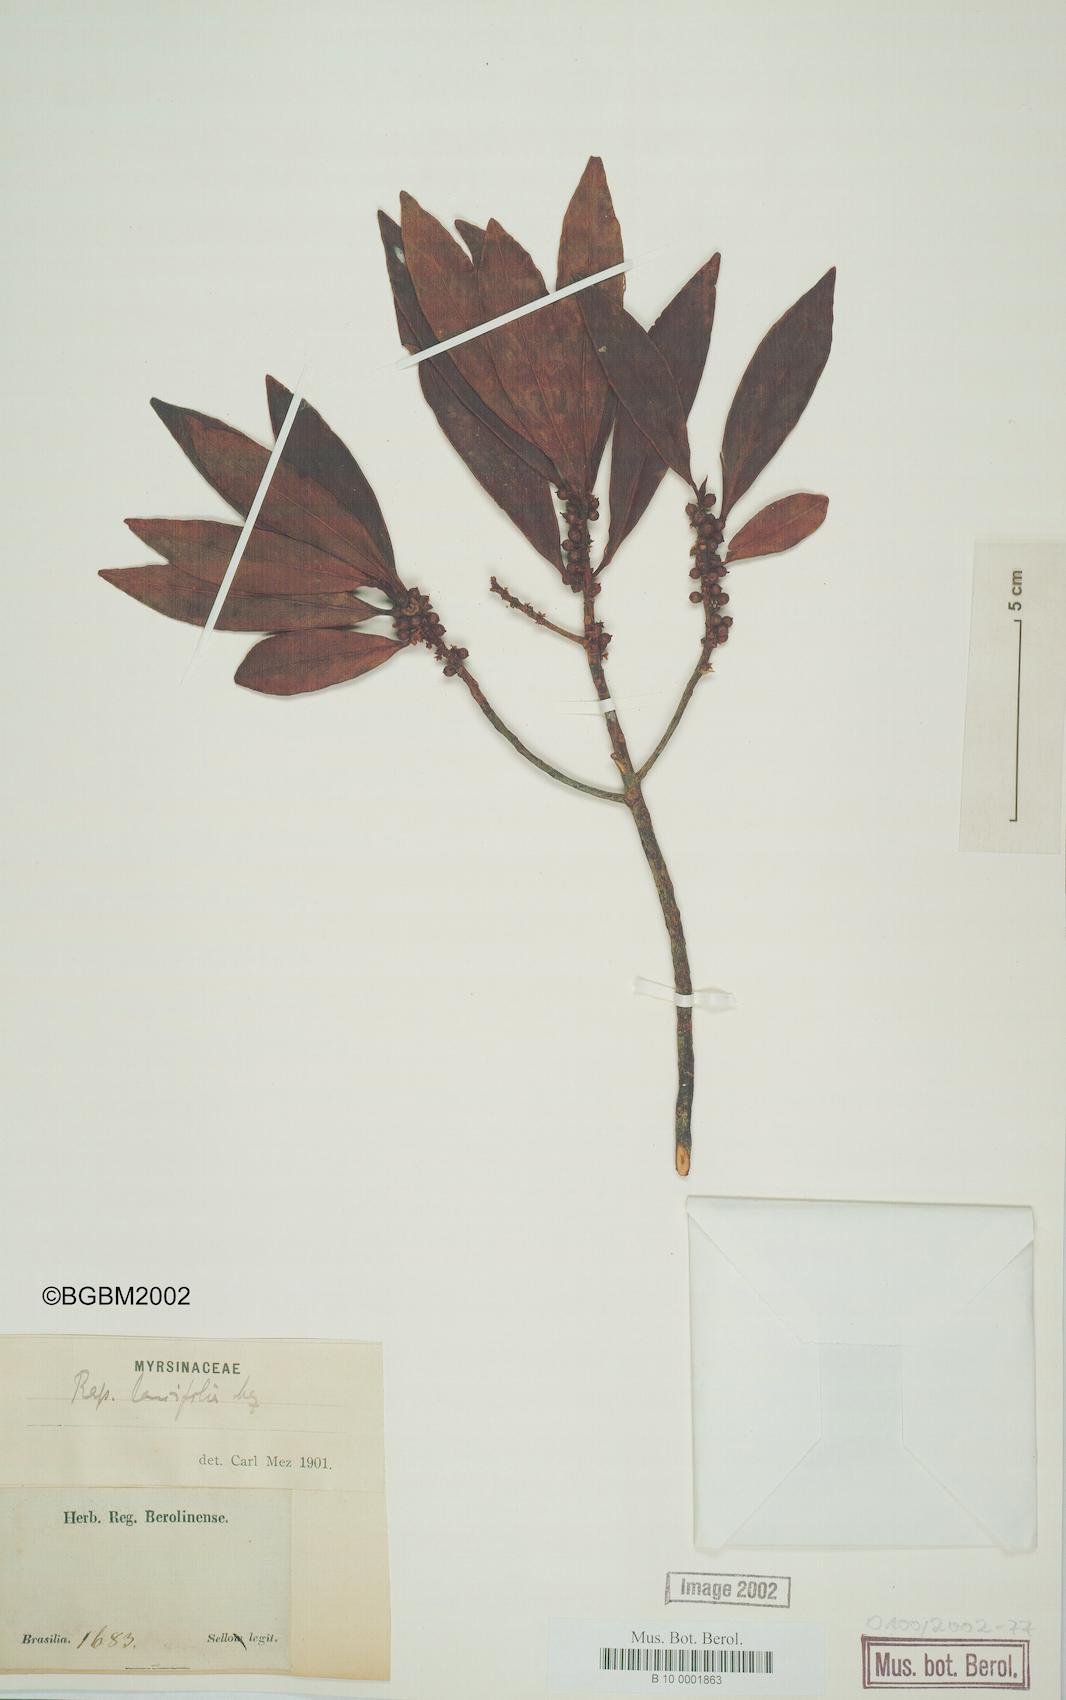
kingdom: Plantae
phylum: Tracheophyta
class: Magnoliopsida
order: Ericales
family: Primulaceae
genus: Myrsine
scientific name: Myrsine latifolia
